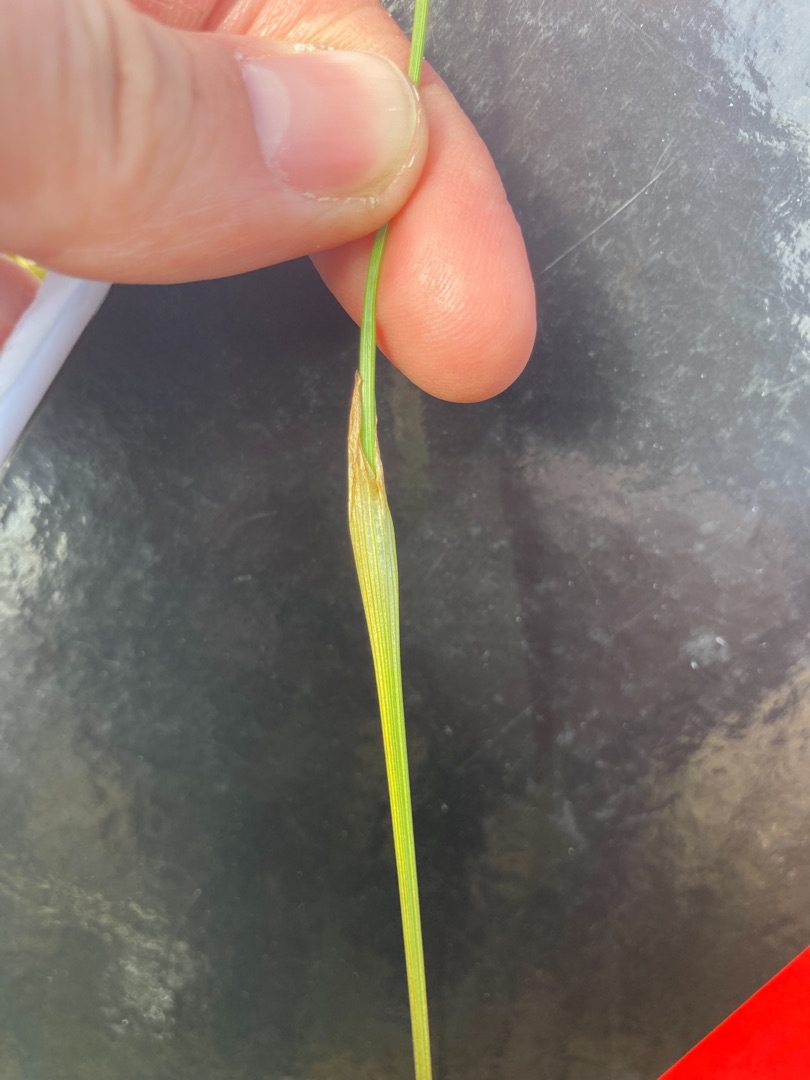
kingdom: Plantae
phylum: Tracheophyta
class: Liliopsida
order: Poales
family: Cyperaceae
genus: Eriophorum
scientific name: Eriophorum vaginatum
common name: Tue-kæruld
